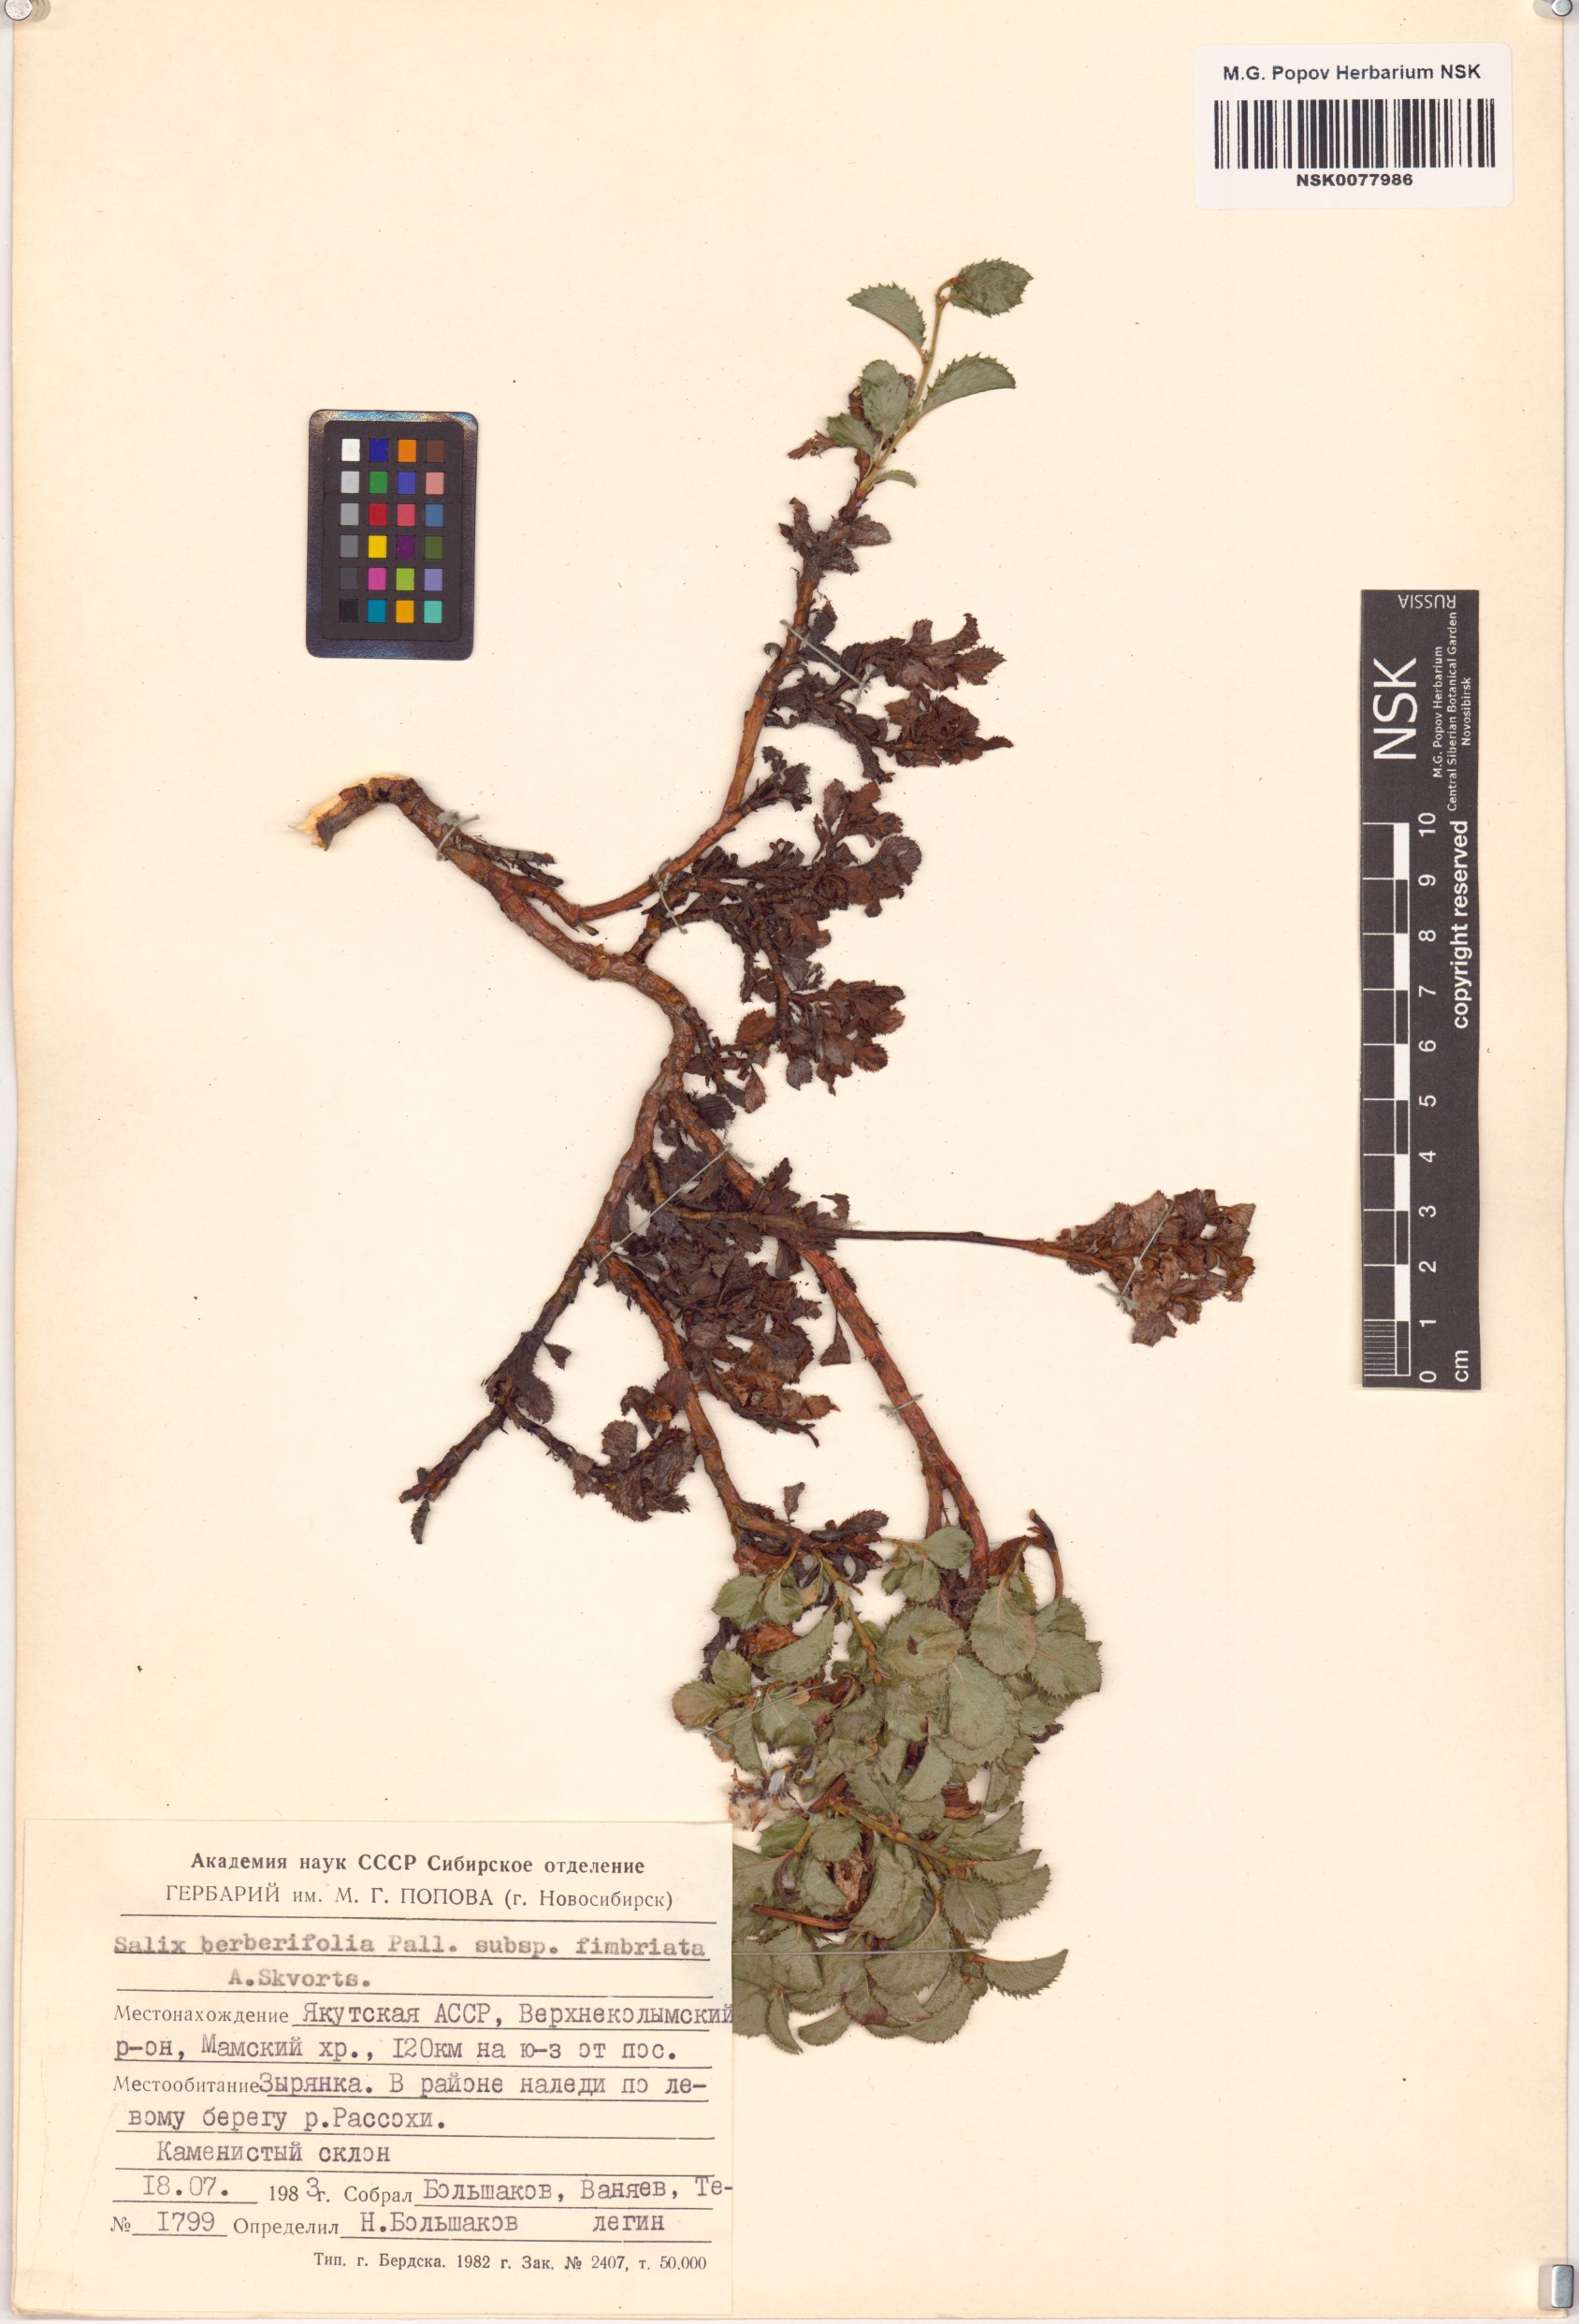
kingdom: Plantae
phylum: Tracheophyta
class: Magnoliopsida
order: Malpighiales
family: Salicaceae
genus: Salix
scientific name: Salix berberifolia
